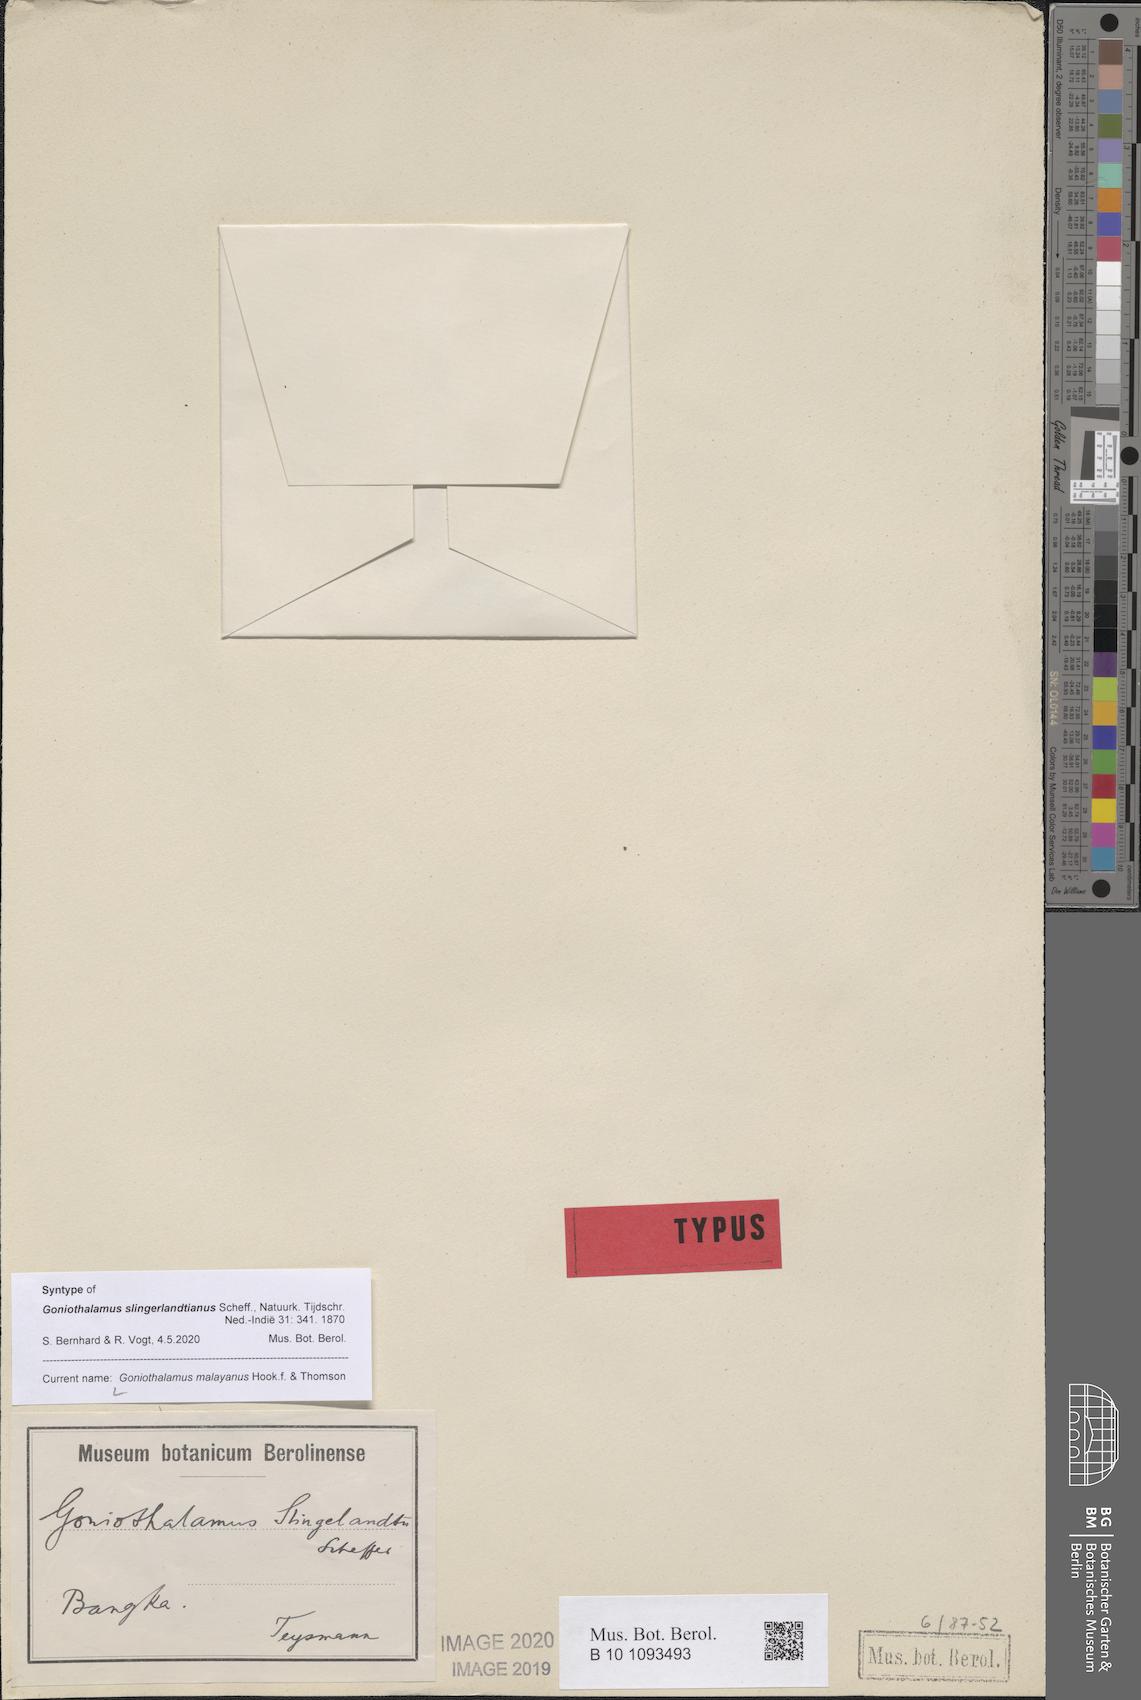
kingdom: Plantae
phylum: Tracheophyta
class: Magnoliopsida
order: Magnoliales
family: Annonaceae
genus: Goniothalamus
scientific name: Goniothalamus malayanus
